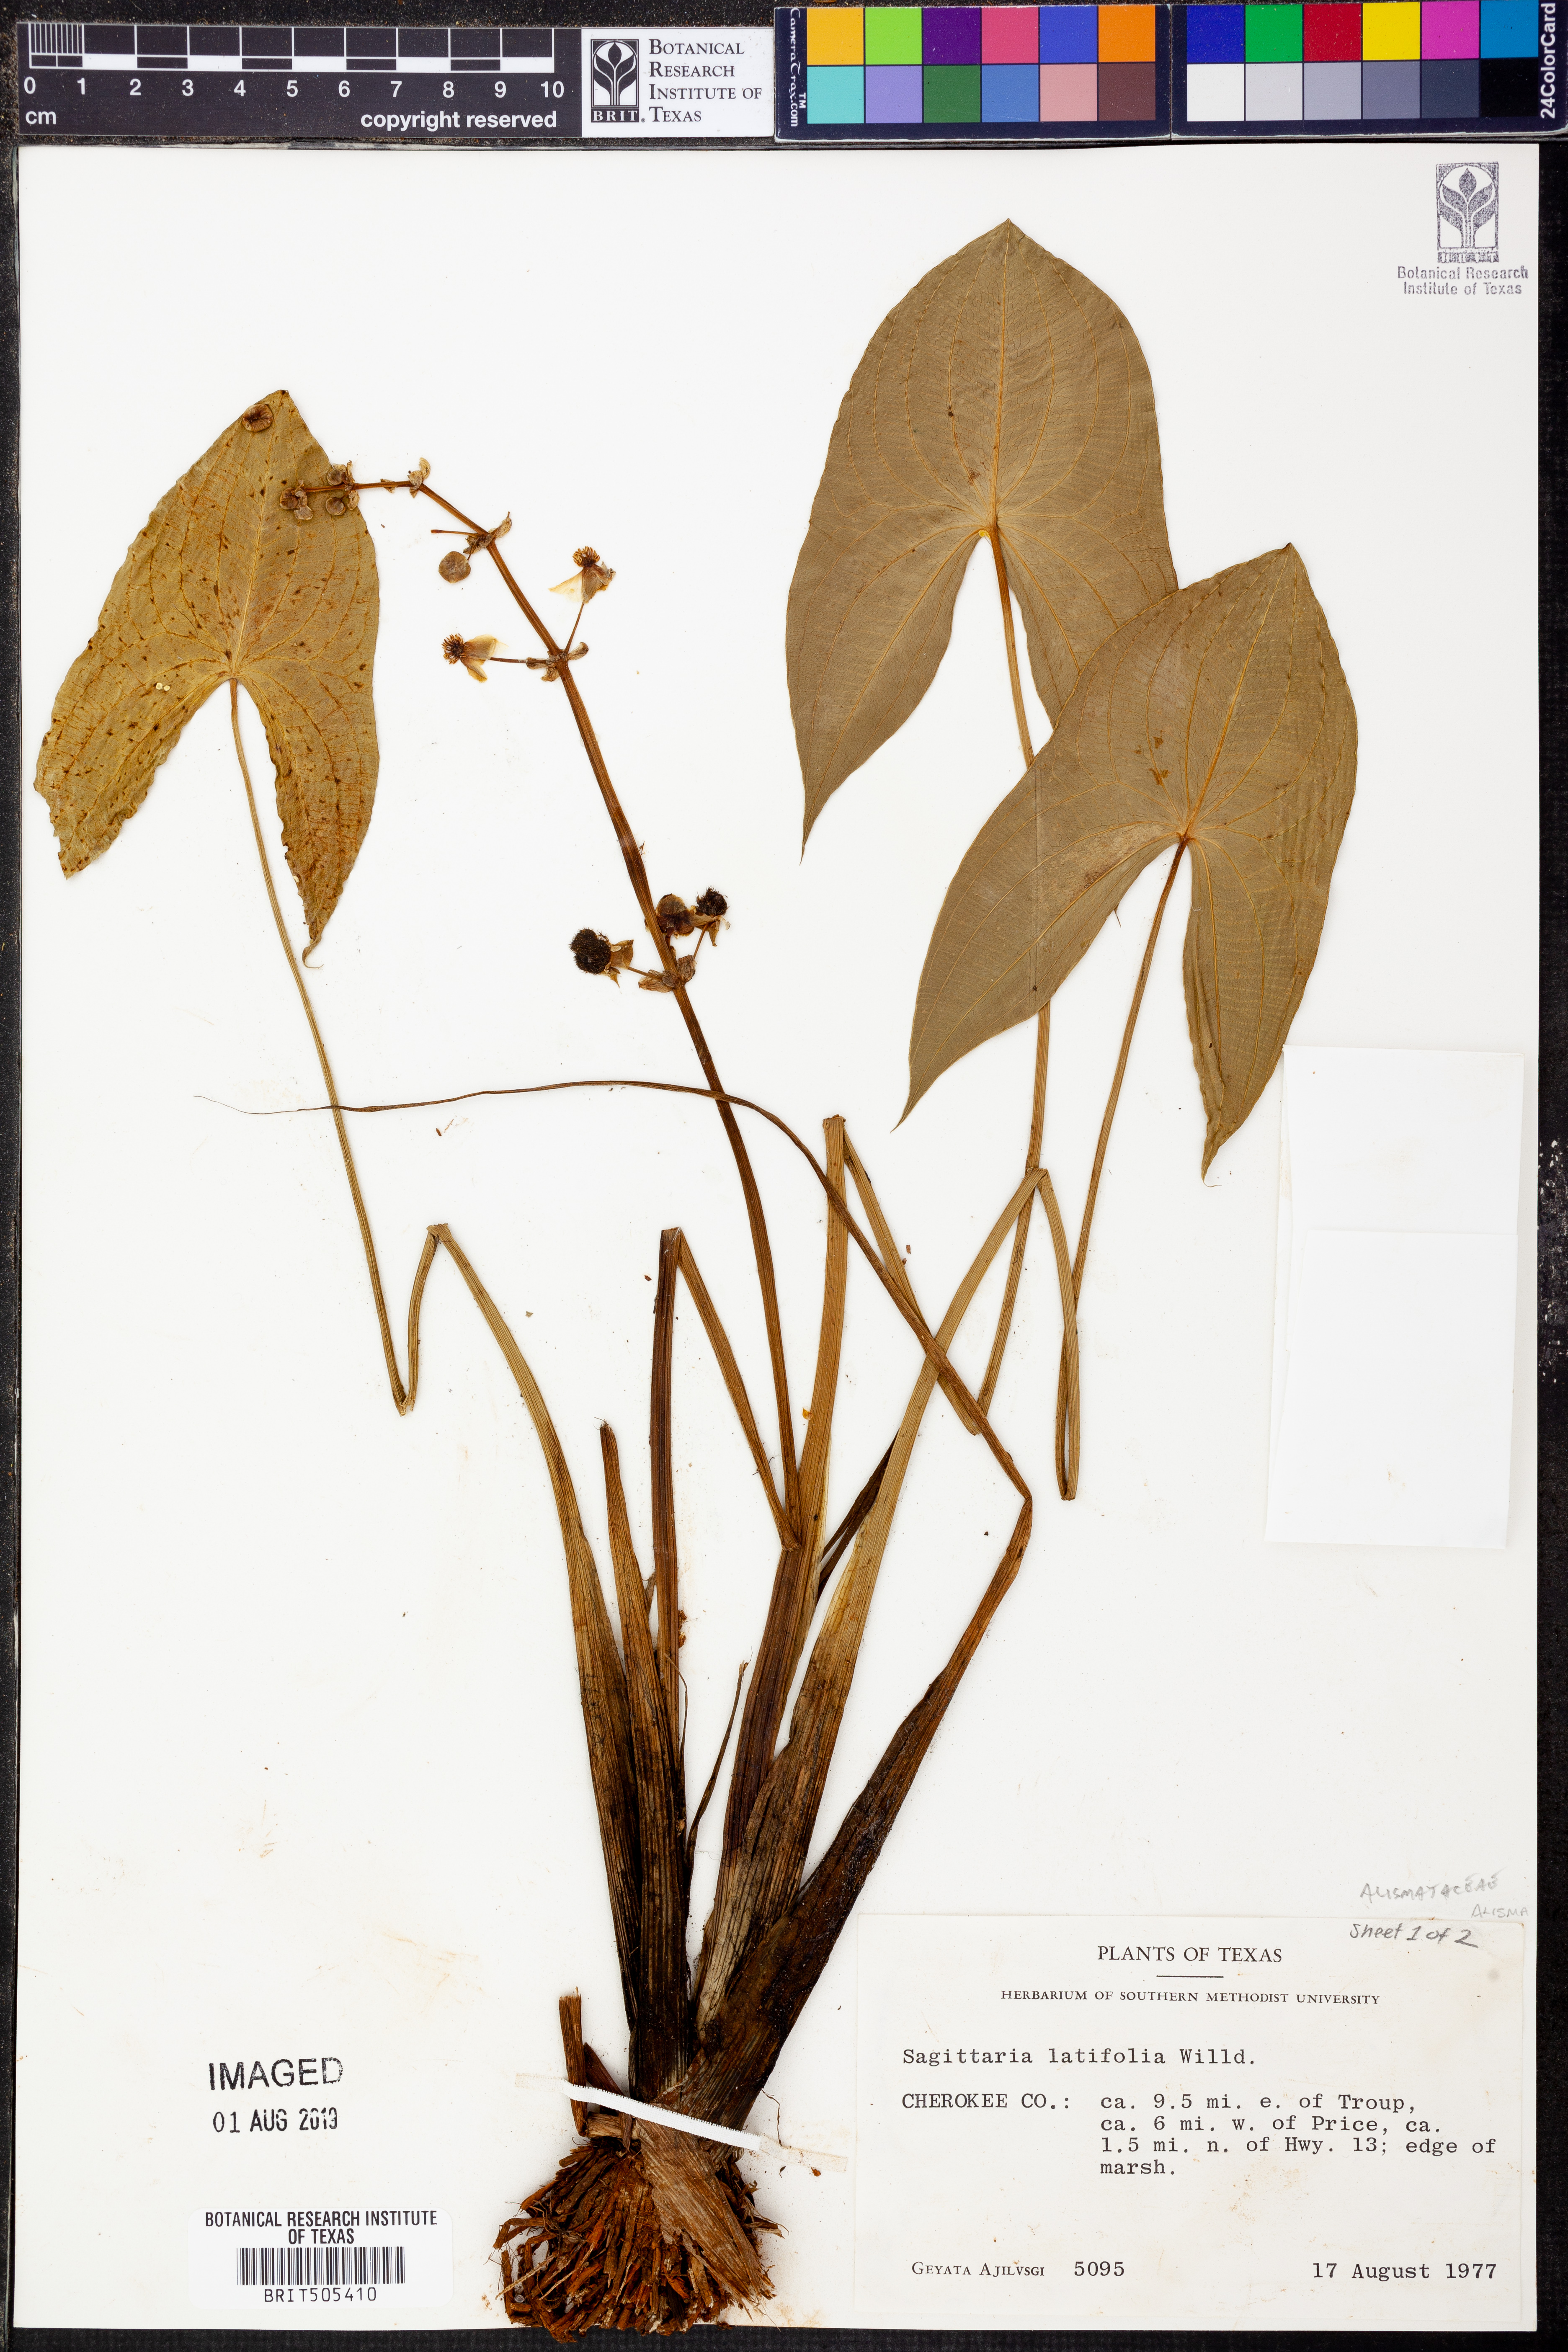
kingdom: Plantae
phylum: Tracheophyta
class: Liliopsida
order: Alismatales
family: Alismataceae
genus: Sagittaria
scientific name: Sagittaria latifolia
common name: Duck-potato
